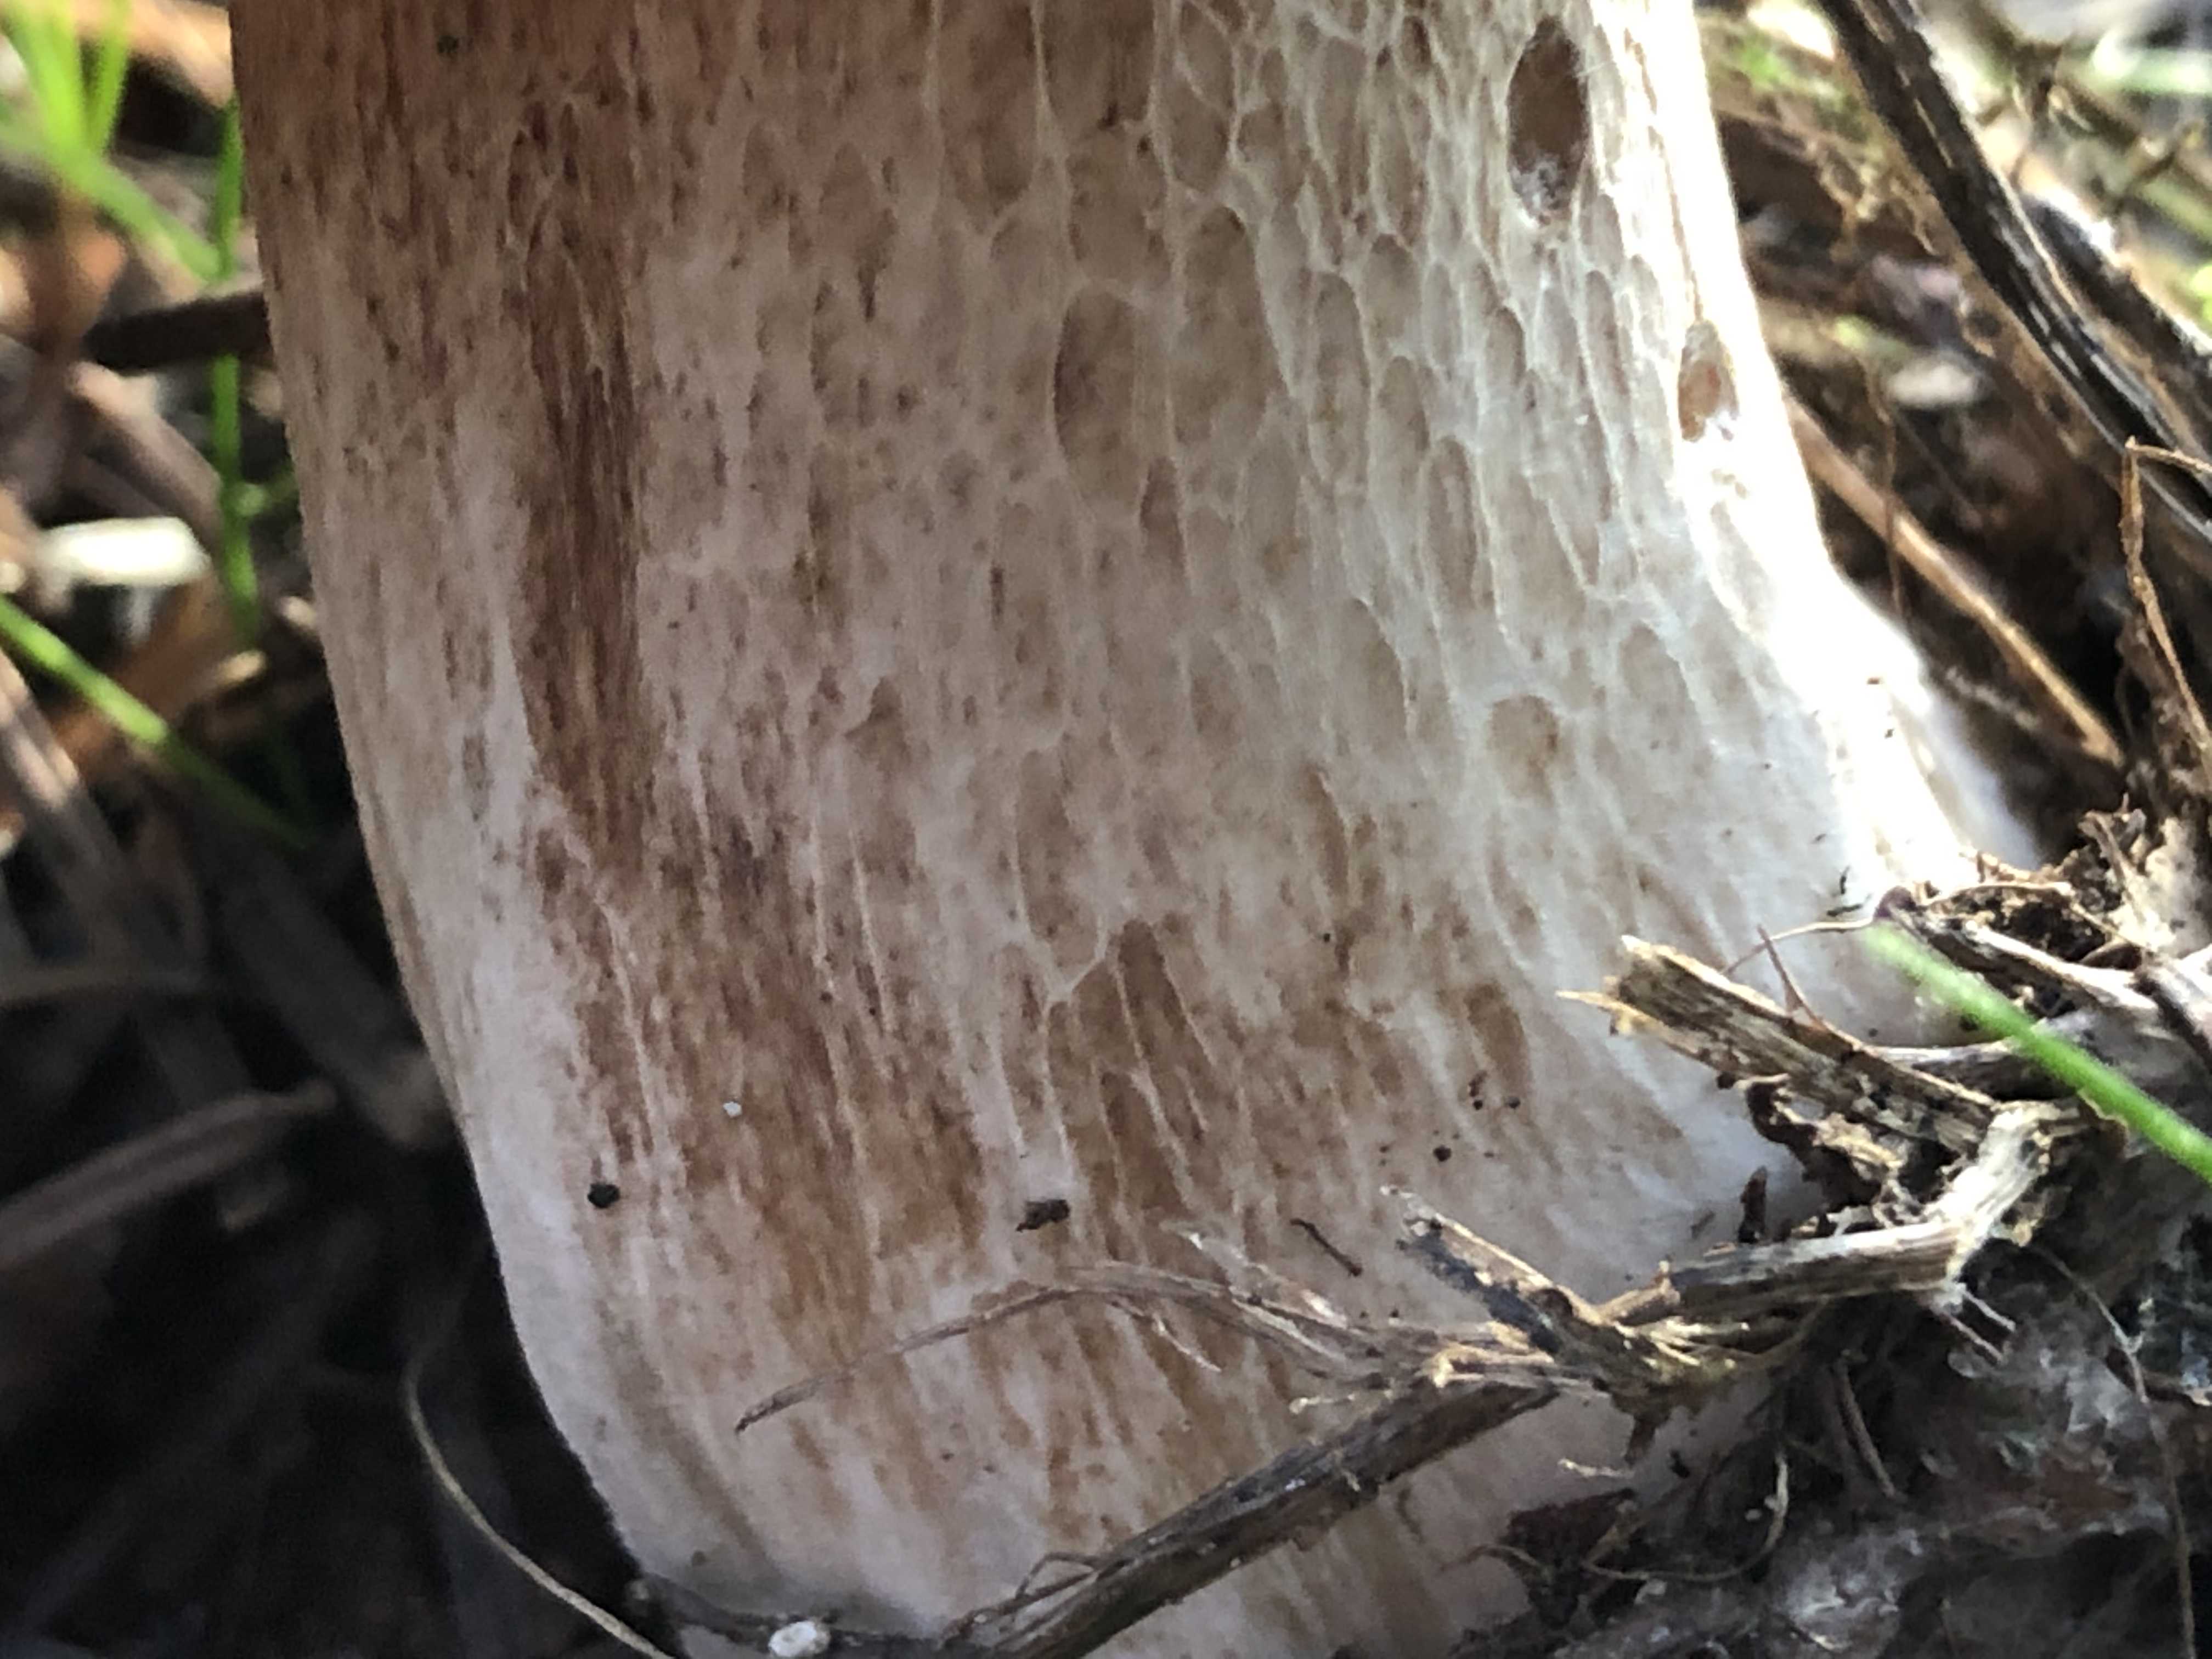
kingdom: Fungi
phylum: Basidiomycota
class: Agaricomycetes
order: Boletales
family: Boletaceae
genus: Boletus
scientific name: Boletus edulis
